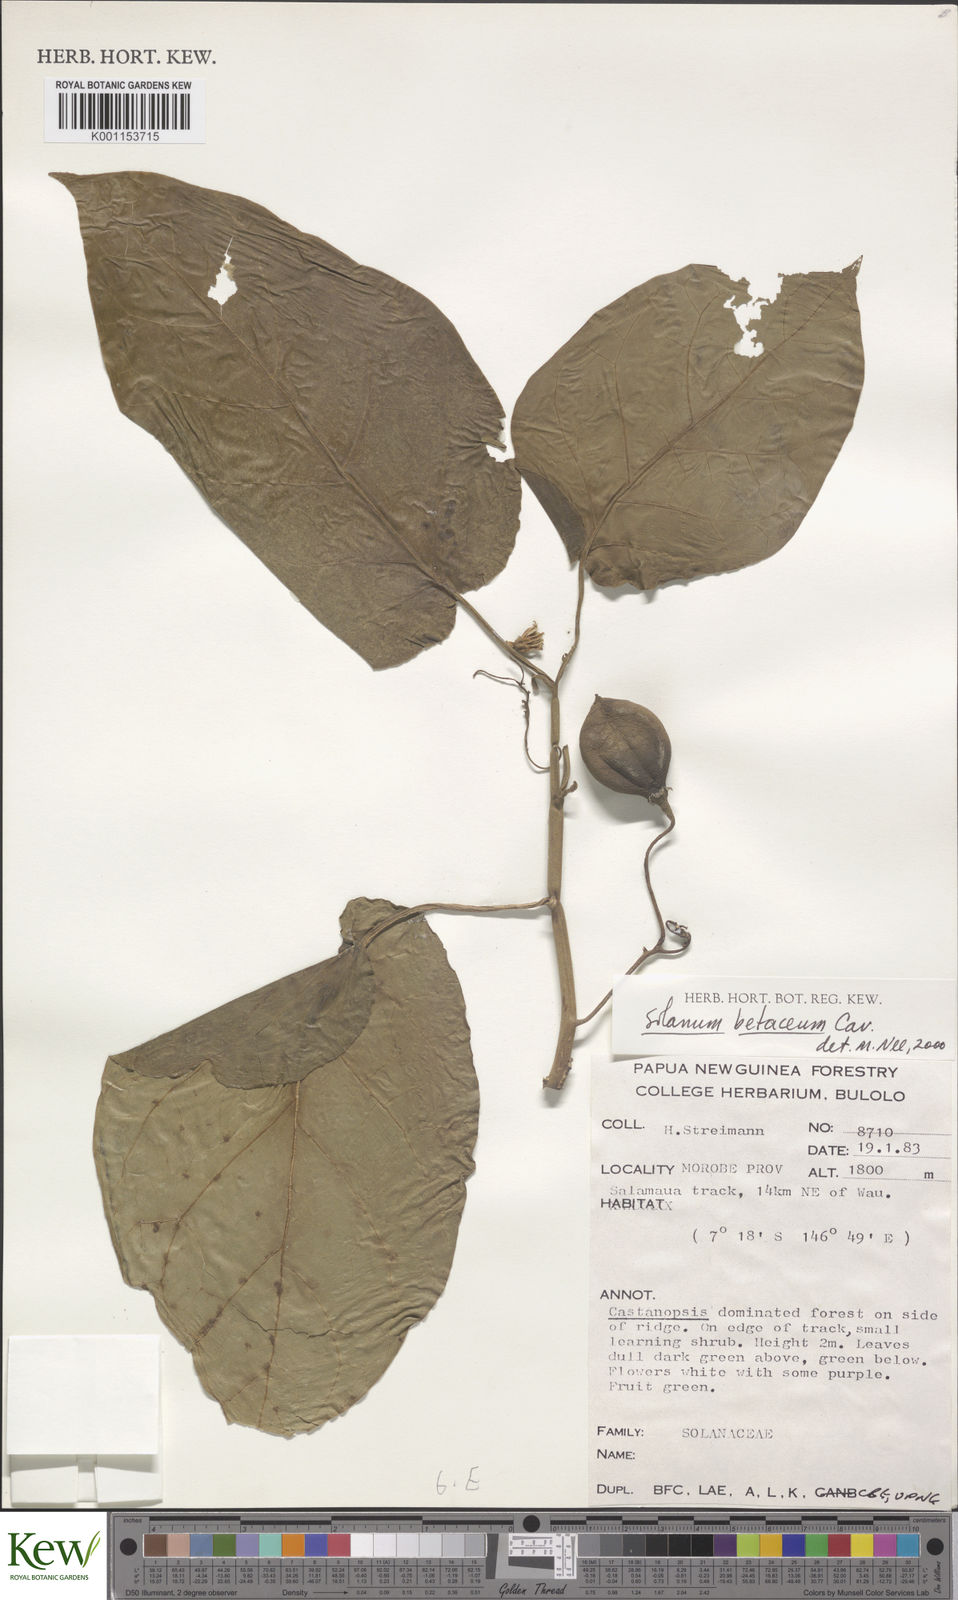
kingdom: Plantae
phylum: Tracheophyta
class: Magnoliopsida
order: Solanales
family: Solanaceae
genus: Solanum
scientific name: Solanum betaceum
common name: Tamarillo
